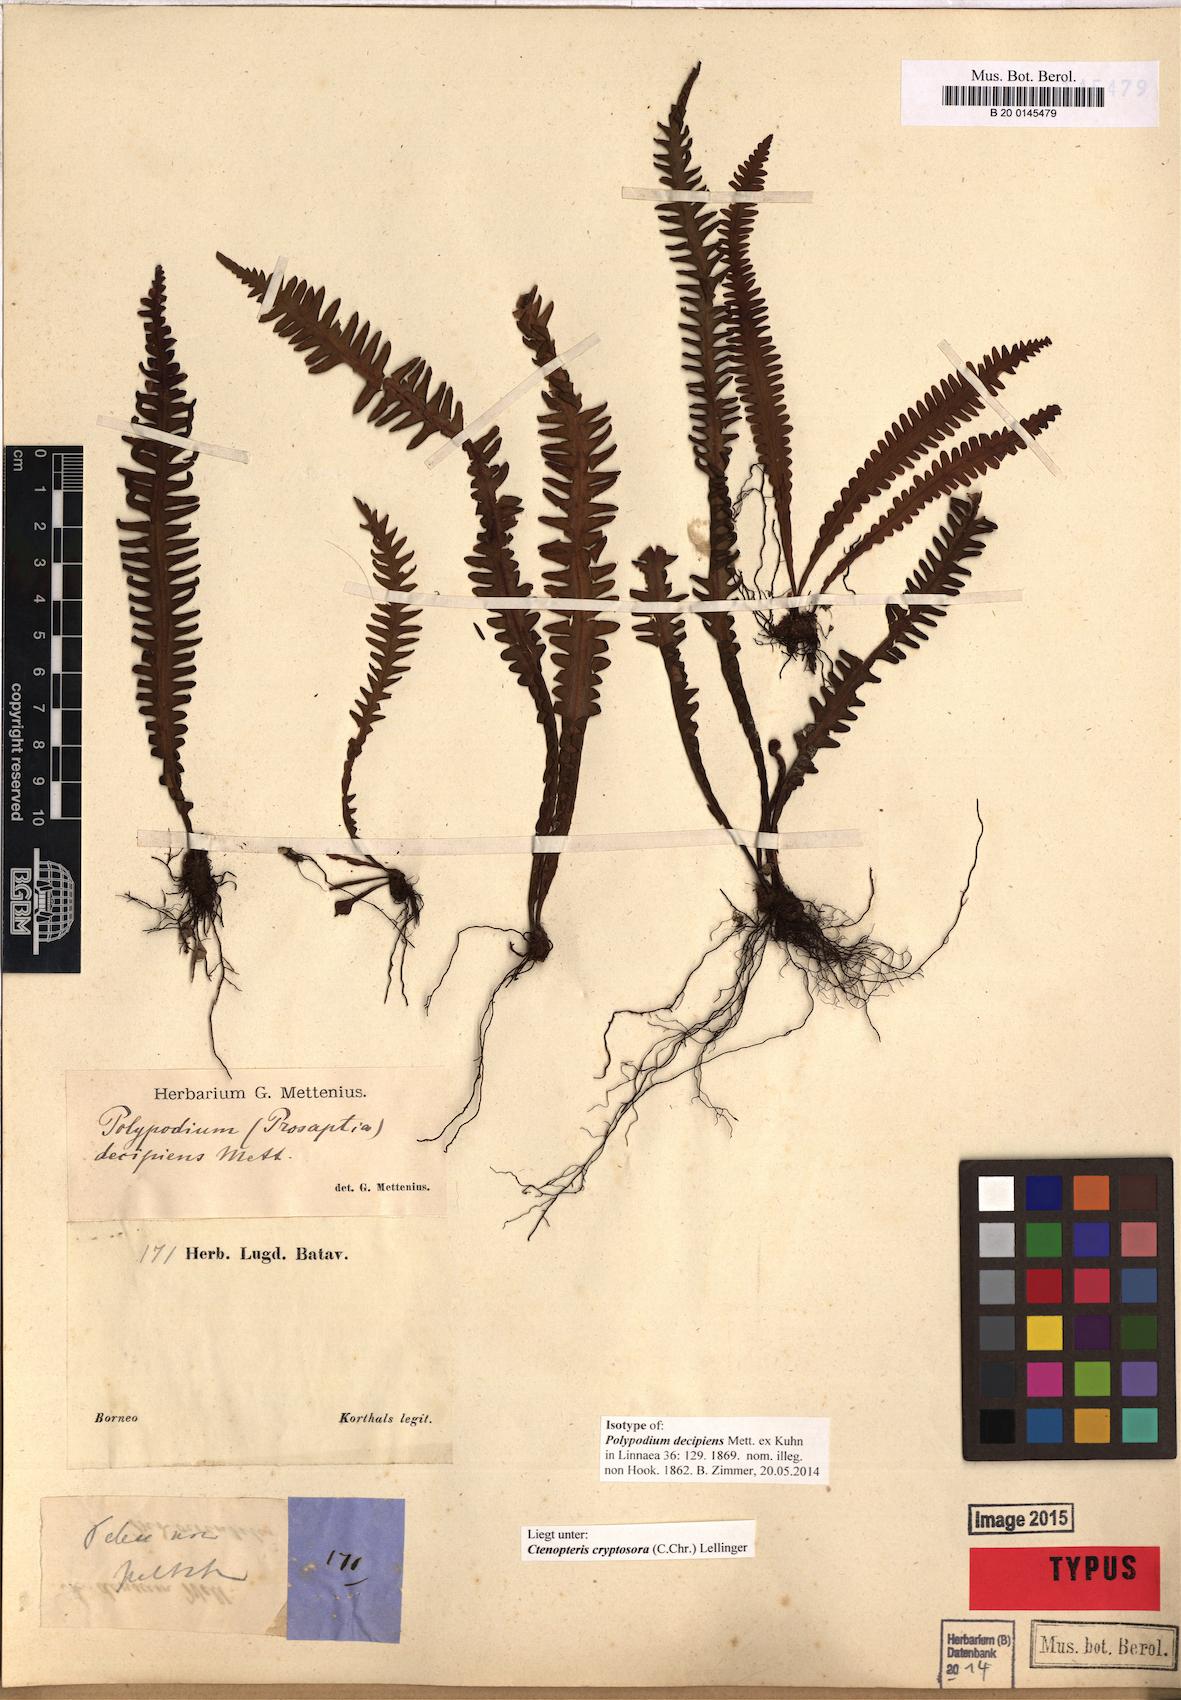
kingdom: Plantae
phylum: Tracheophyta
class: Polypodiopsida
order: Polypodiales
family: Polypodiaceae
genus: Prosaptia
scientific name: Prosaptia barathrophylla
